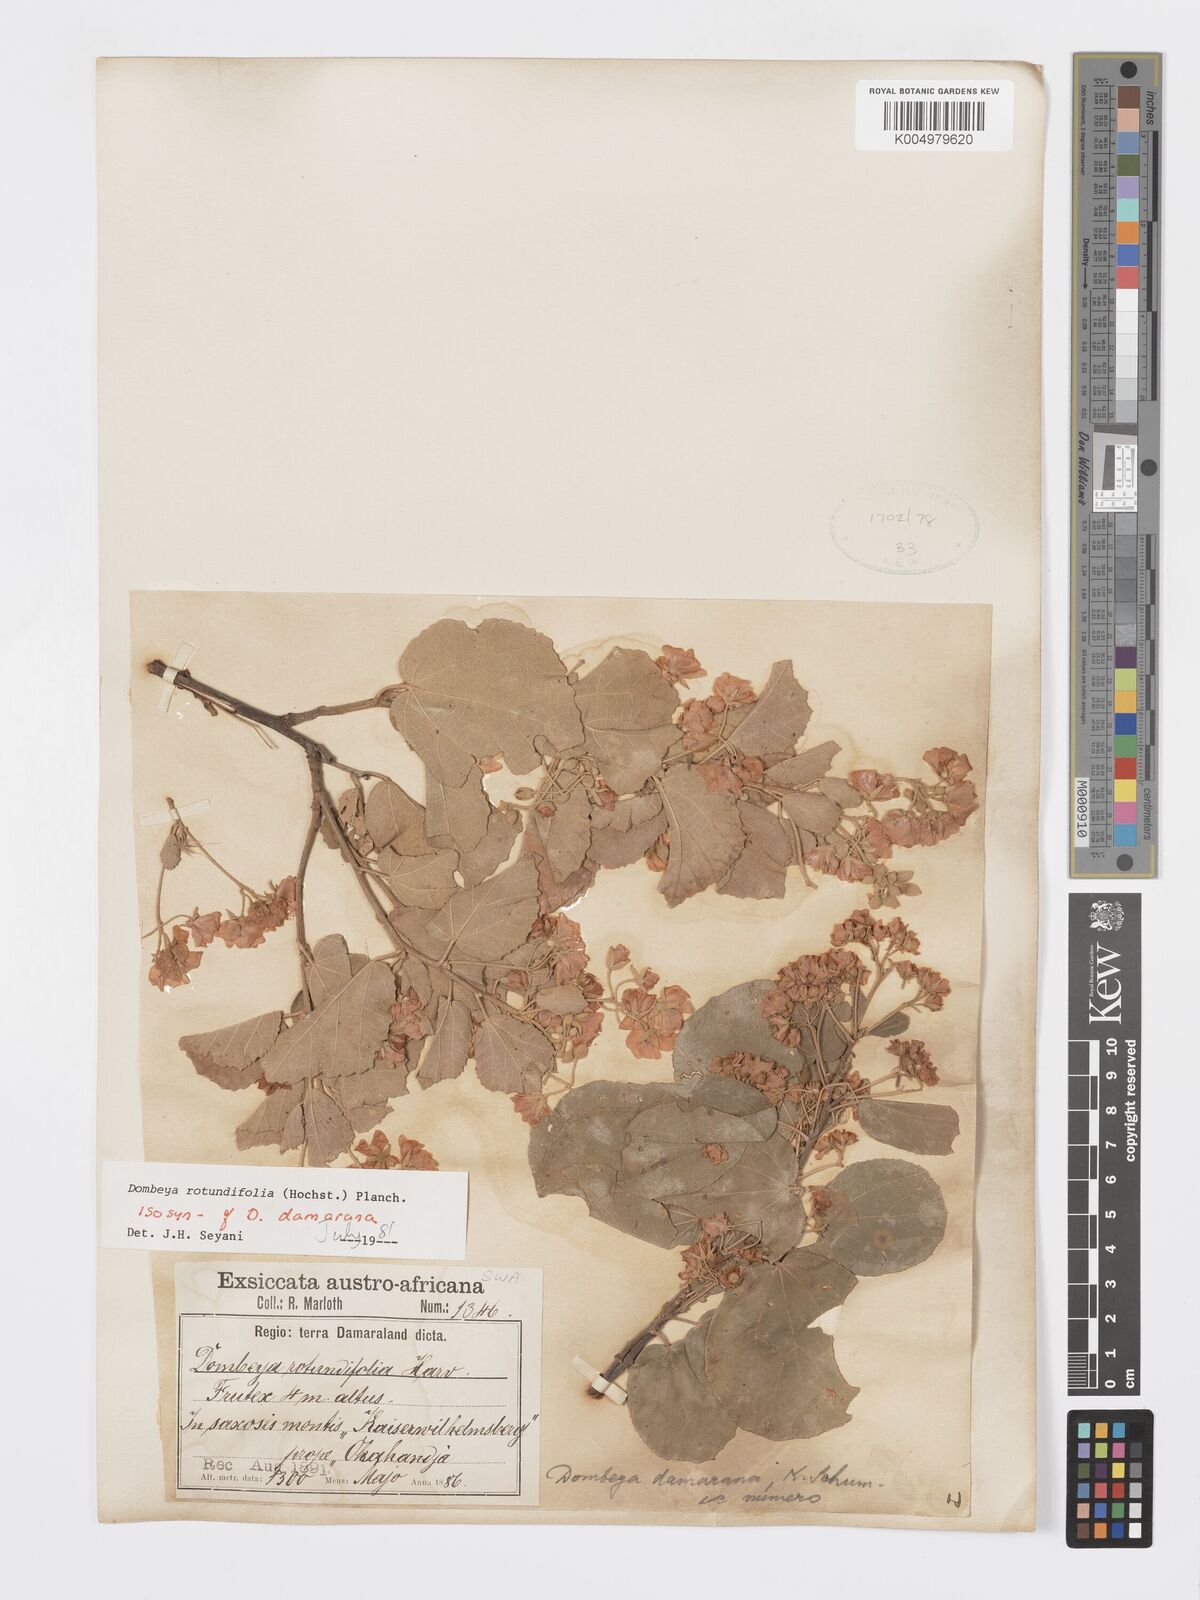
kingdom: Plantae
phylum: Tracheophyta
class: Magnoliopsida
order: Malvales
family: Malvaceae
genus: Dombeya
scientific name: Dombeya rotundifolia
